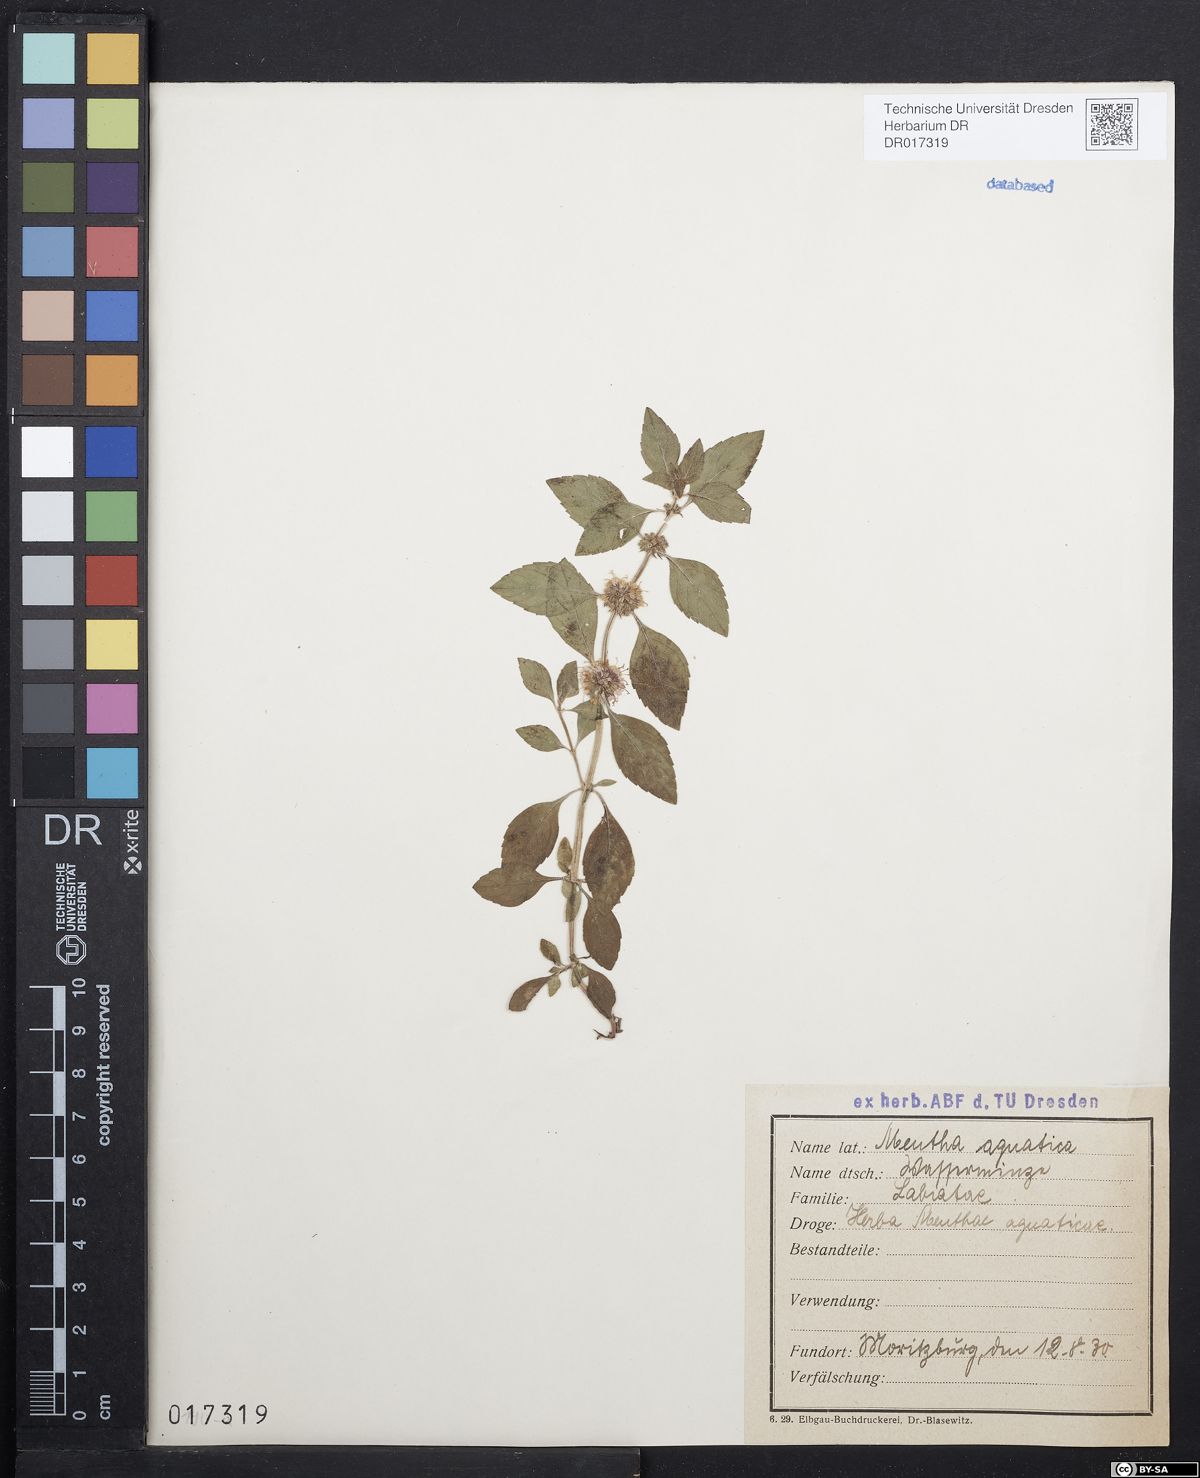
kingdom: Plantae
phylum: Tracheophyta
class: Magnoliopsida
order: Lamiales
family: Lamiaceae
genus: Mentha
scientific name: Mentha verticillata
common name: Mint
